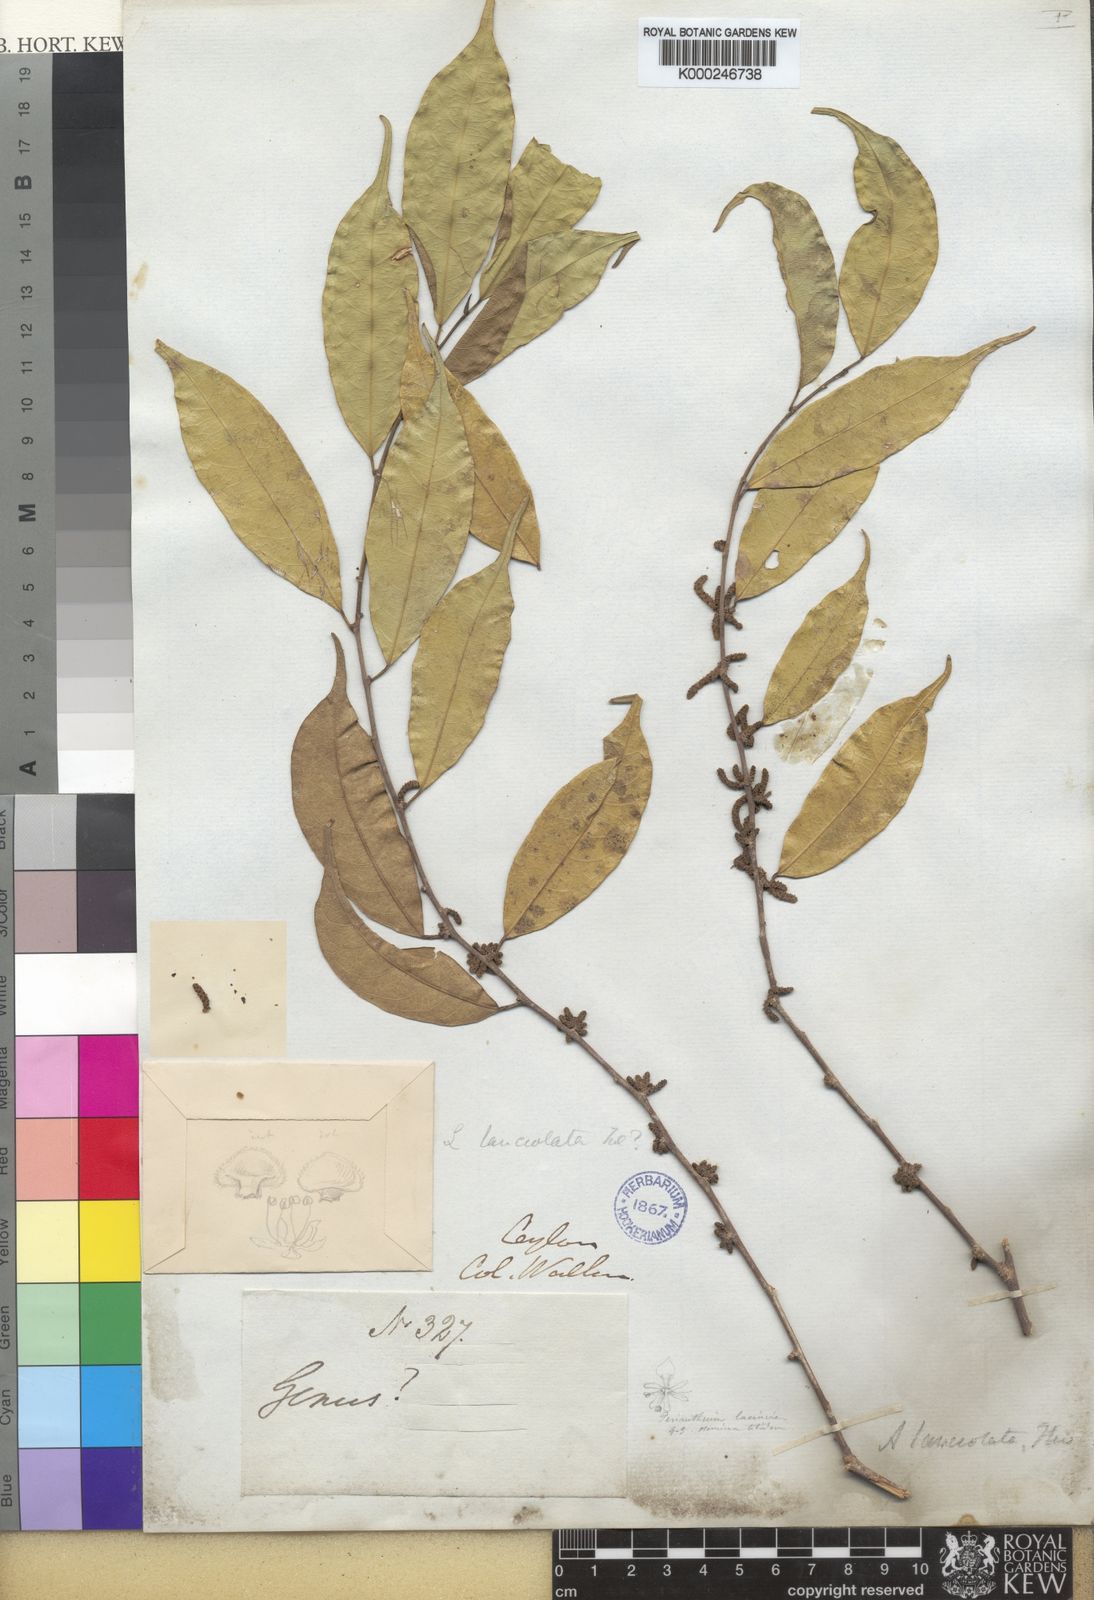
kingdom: Plantae
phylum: Tracheophyta
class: Magnoliopsida
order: Malpighiales
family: Phyllanthaceae
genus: Aporosa
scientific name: Aporosa lanceolata
